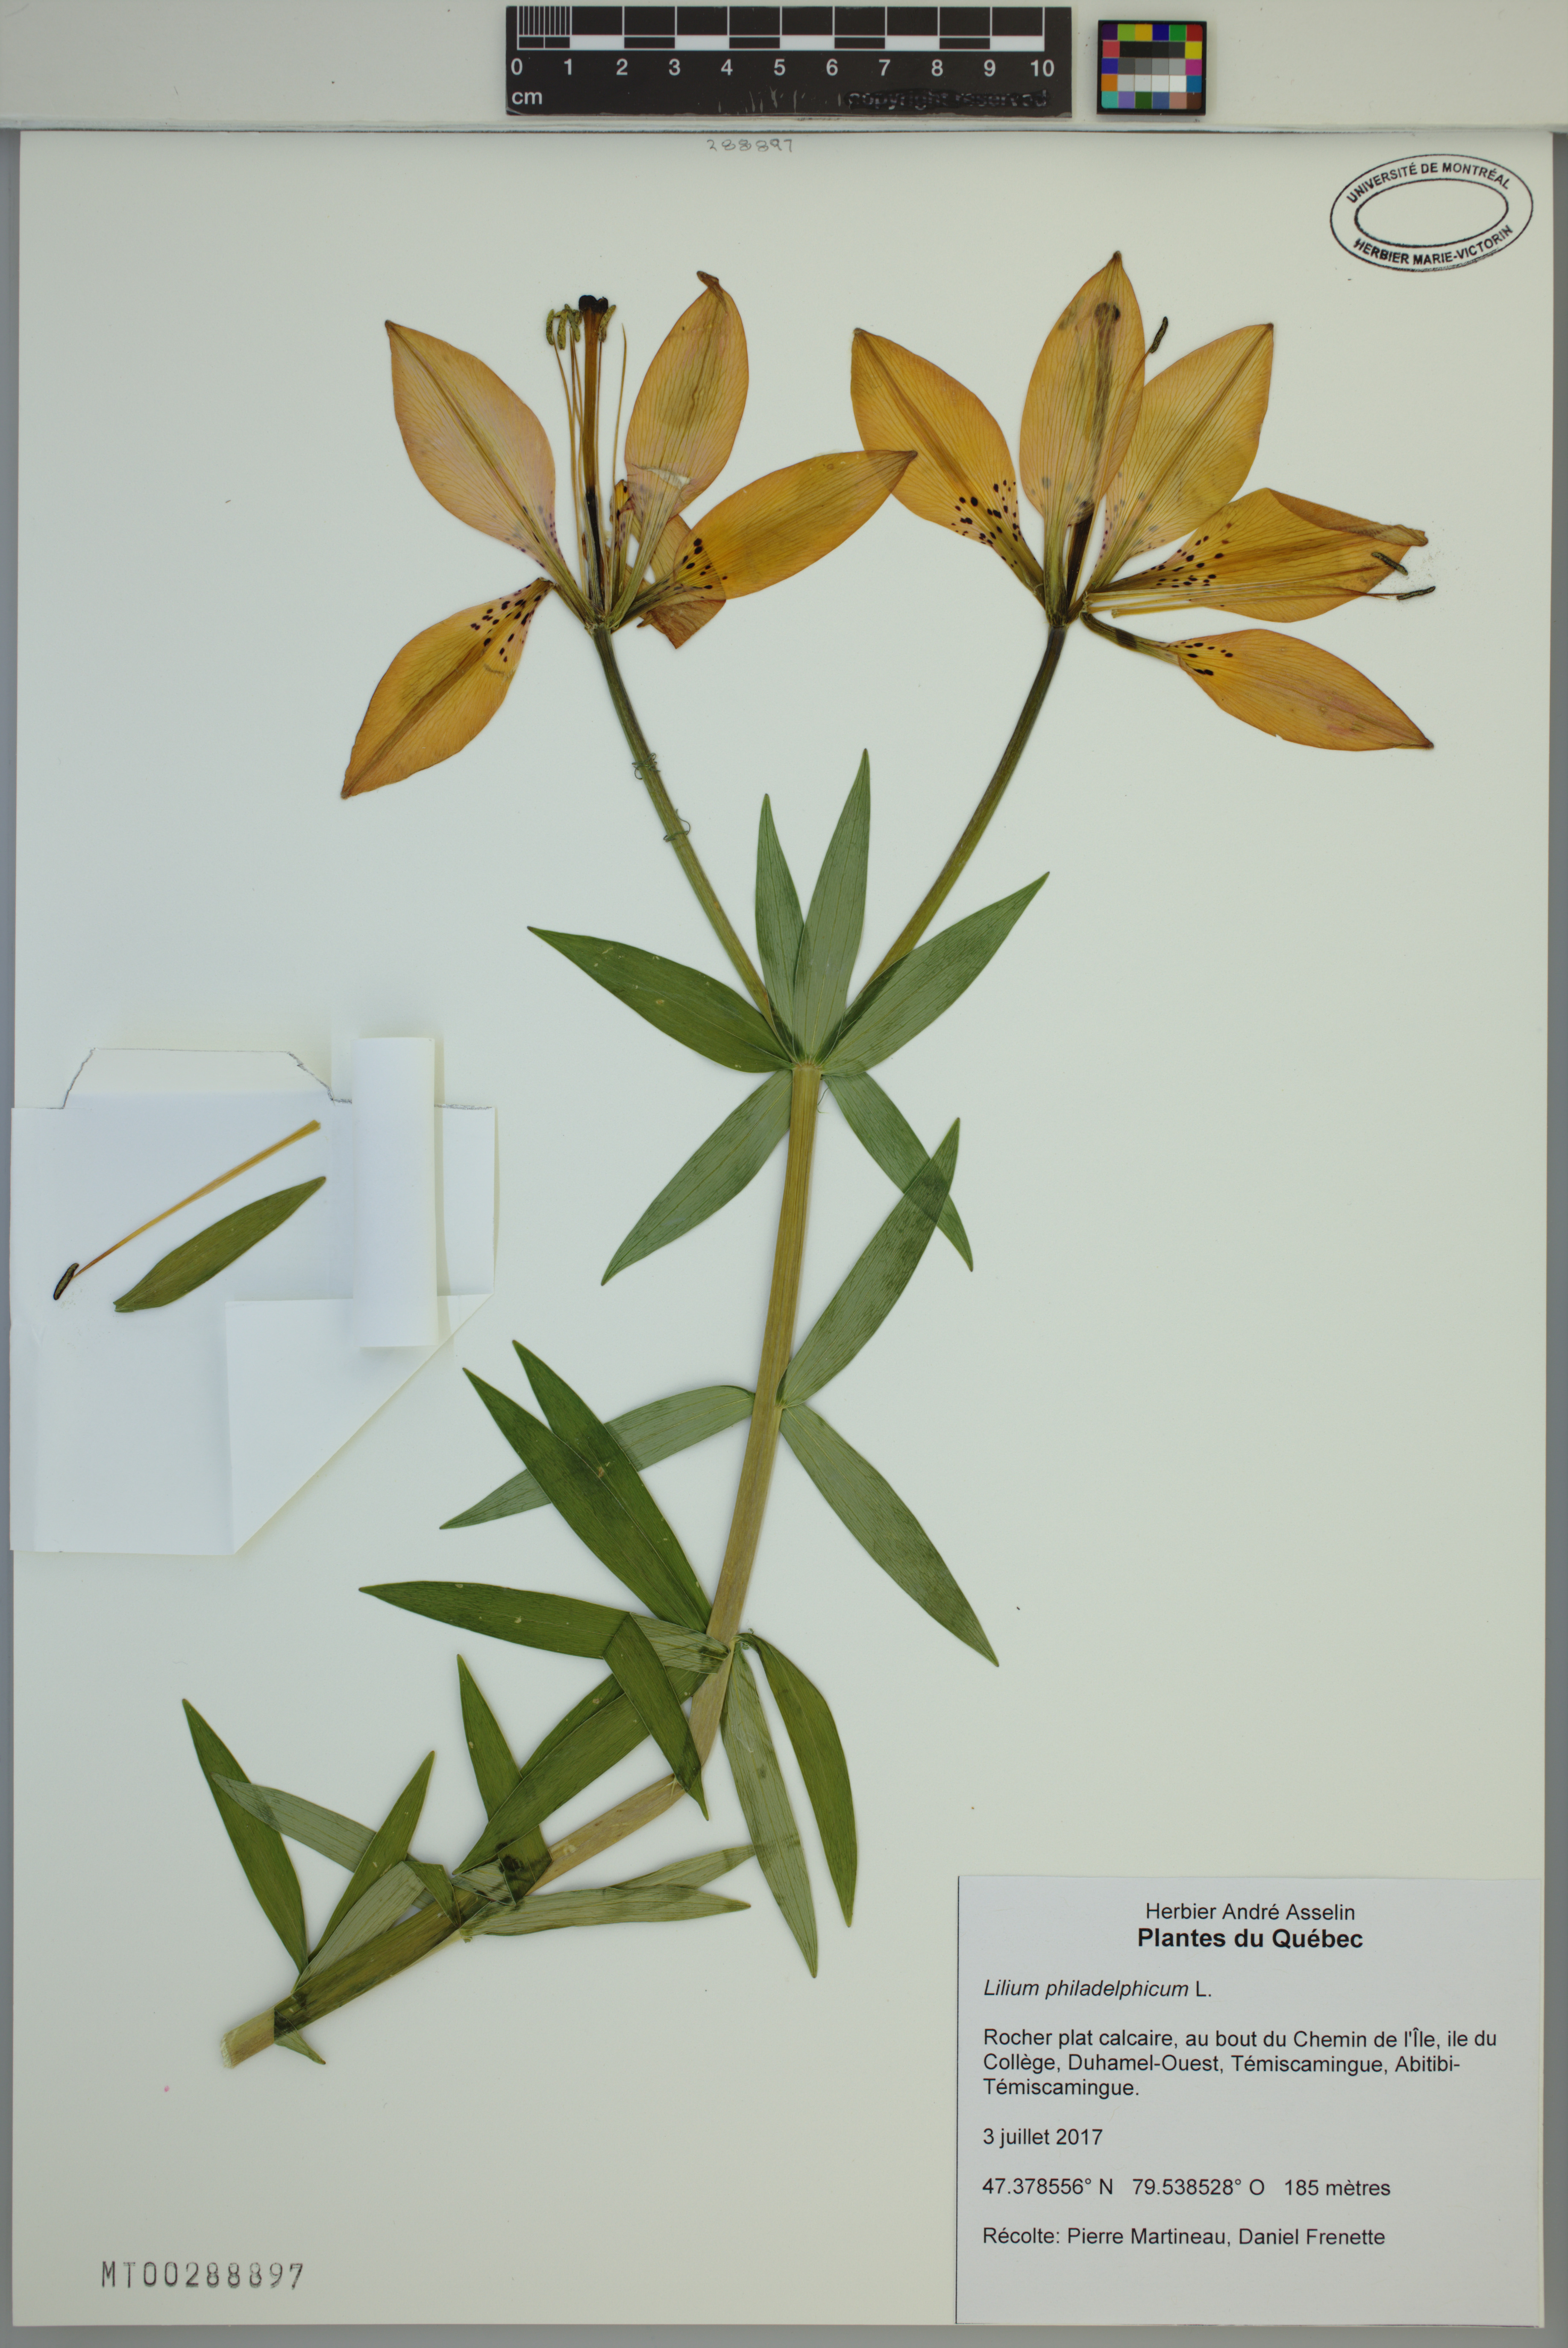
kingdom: Plantae
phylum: Tracheophyta
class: Liliopsida
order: Liliales
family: Liliaceae
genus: Lilium
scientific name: Lilium philadelphicum
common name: Red lily
